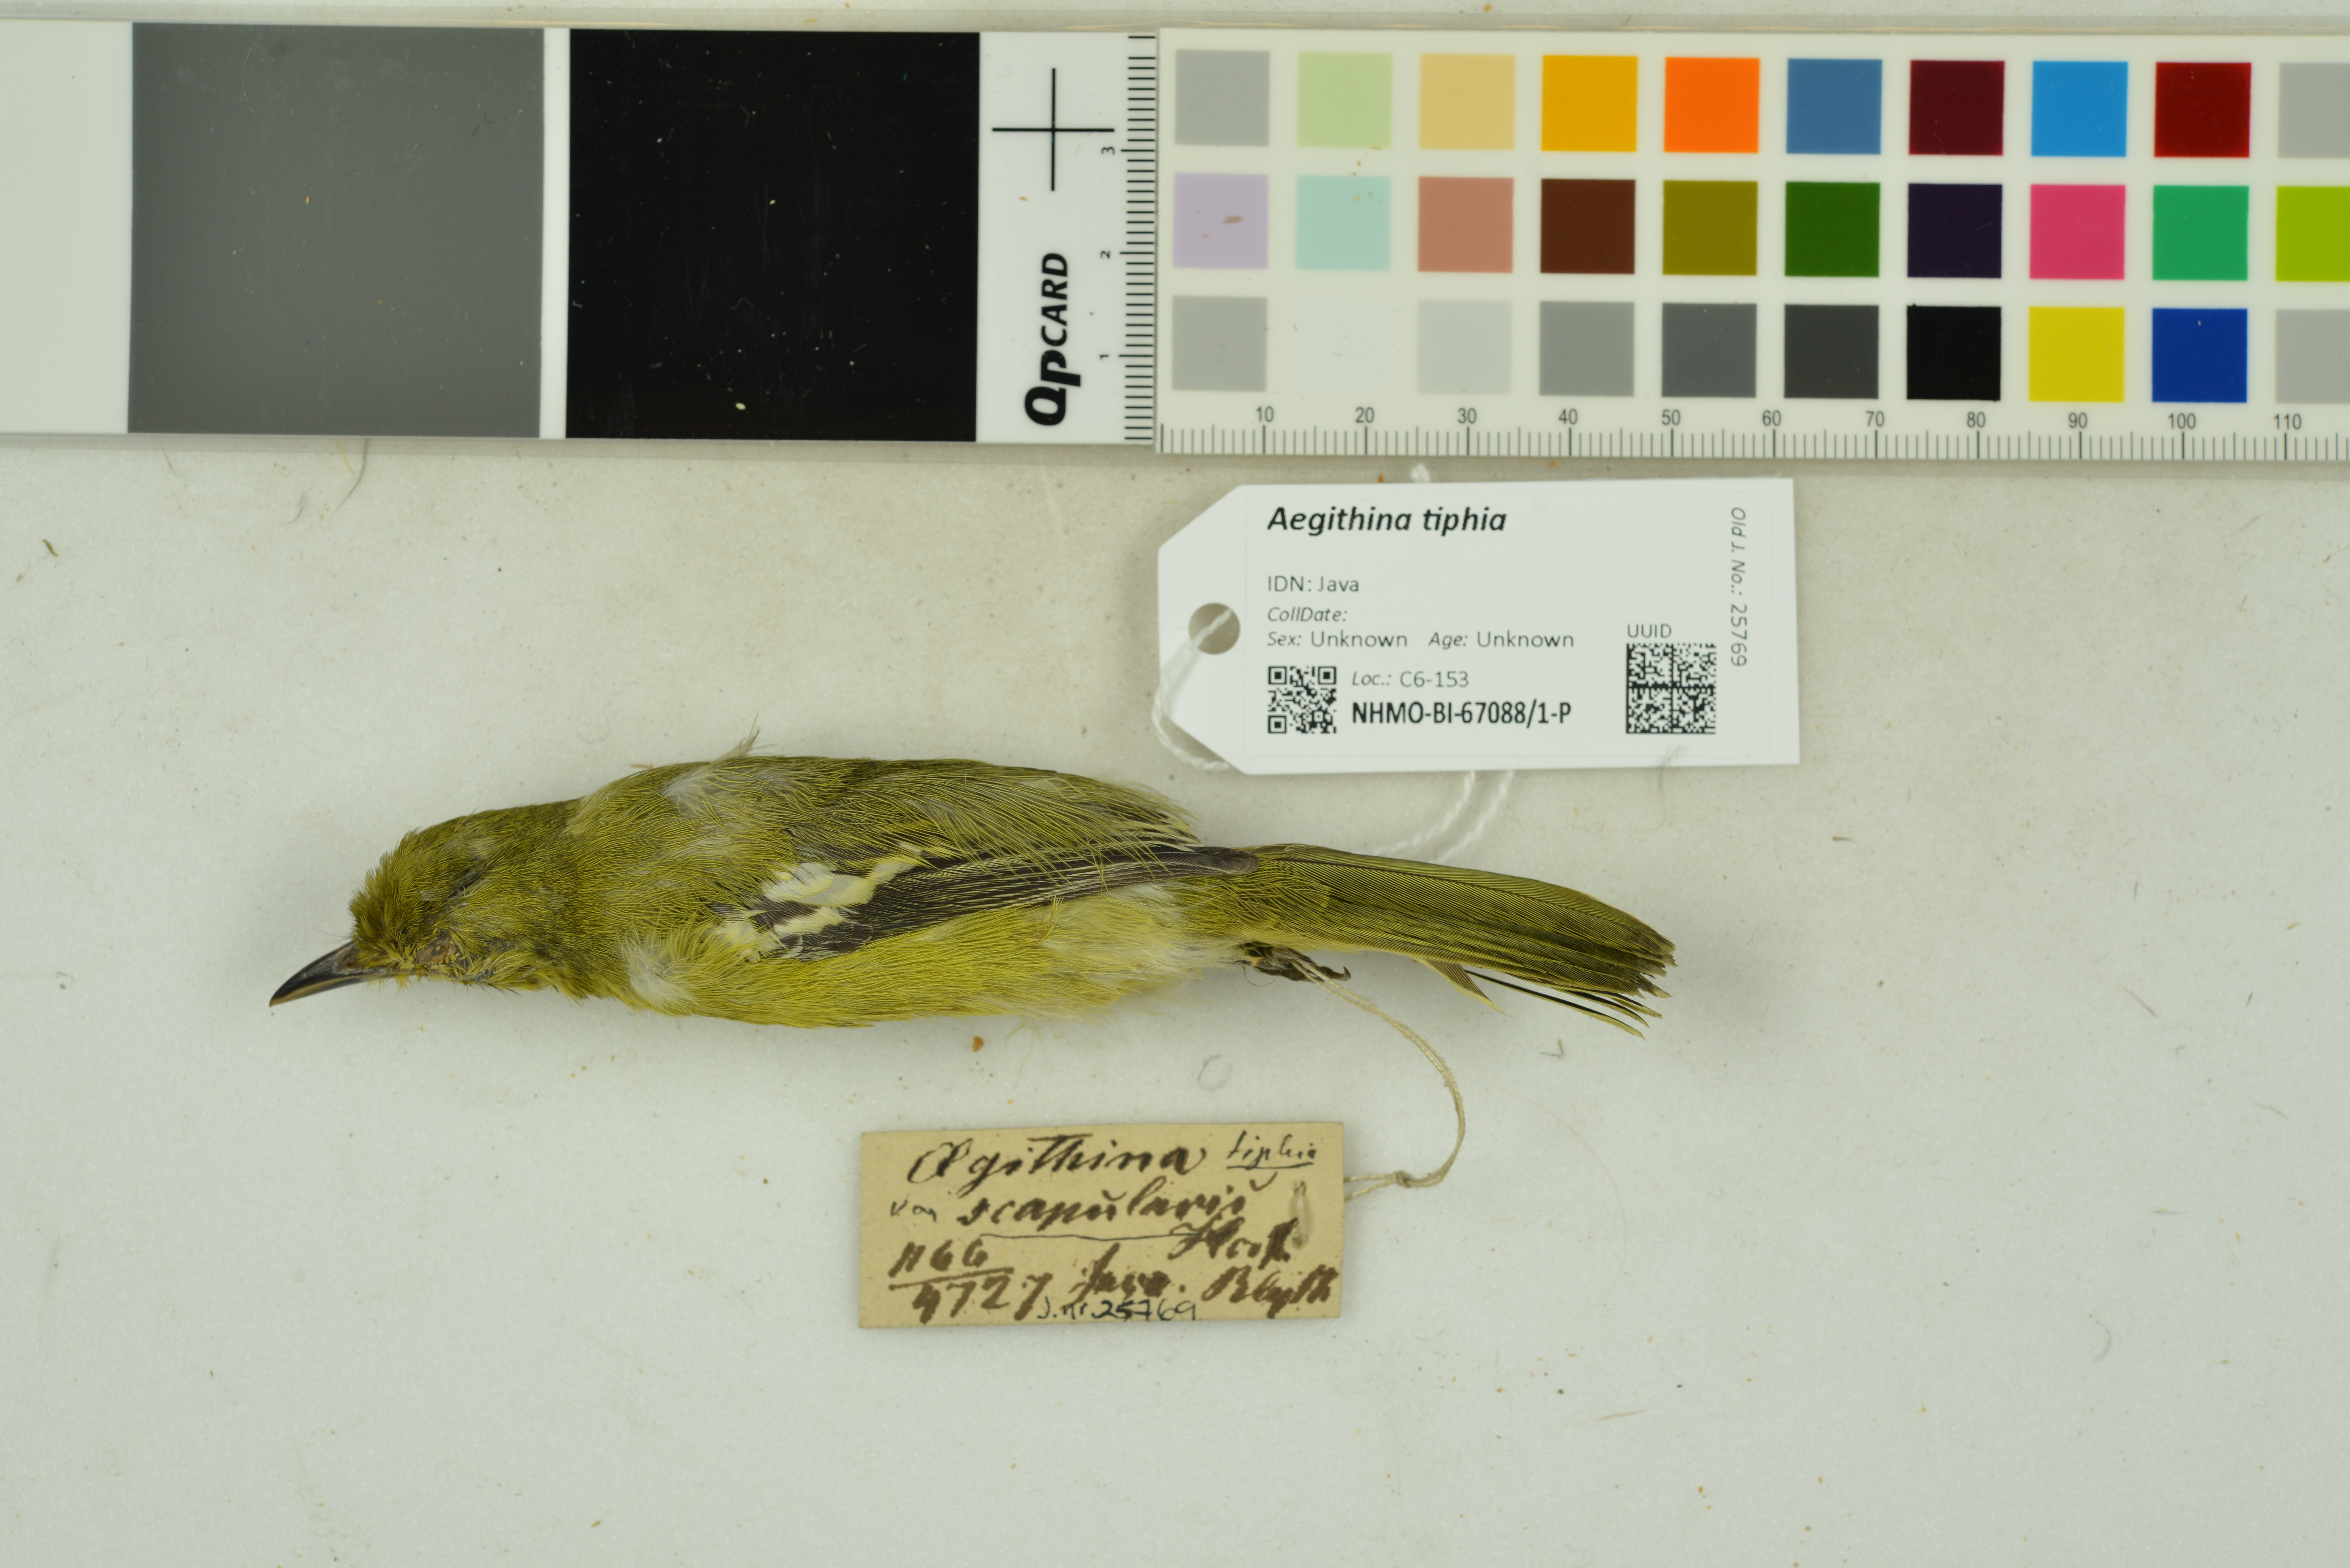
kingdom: Animalia
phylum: Chordata
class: Aves
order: Passeriformes
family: Aegithinidae
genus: Aegithina
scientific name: Aegithina tiphia
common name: Common iora
